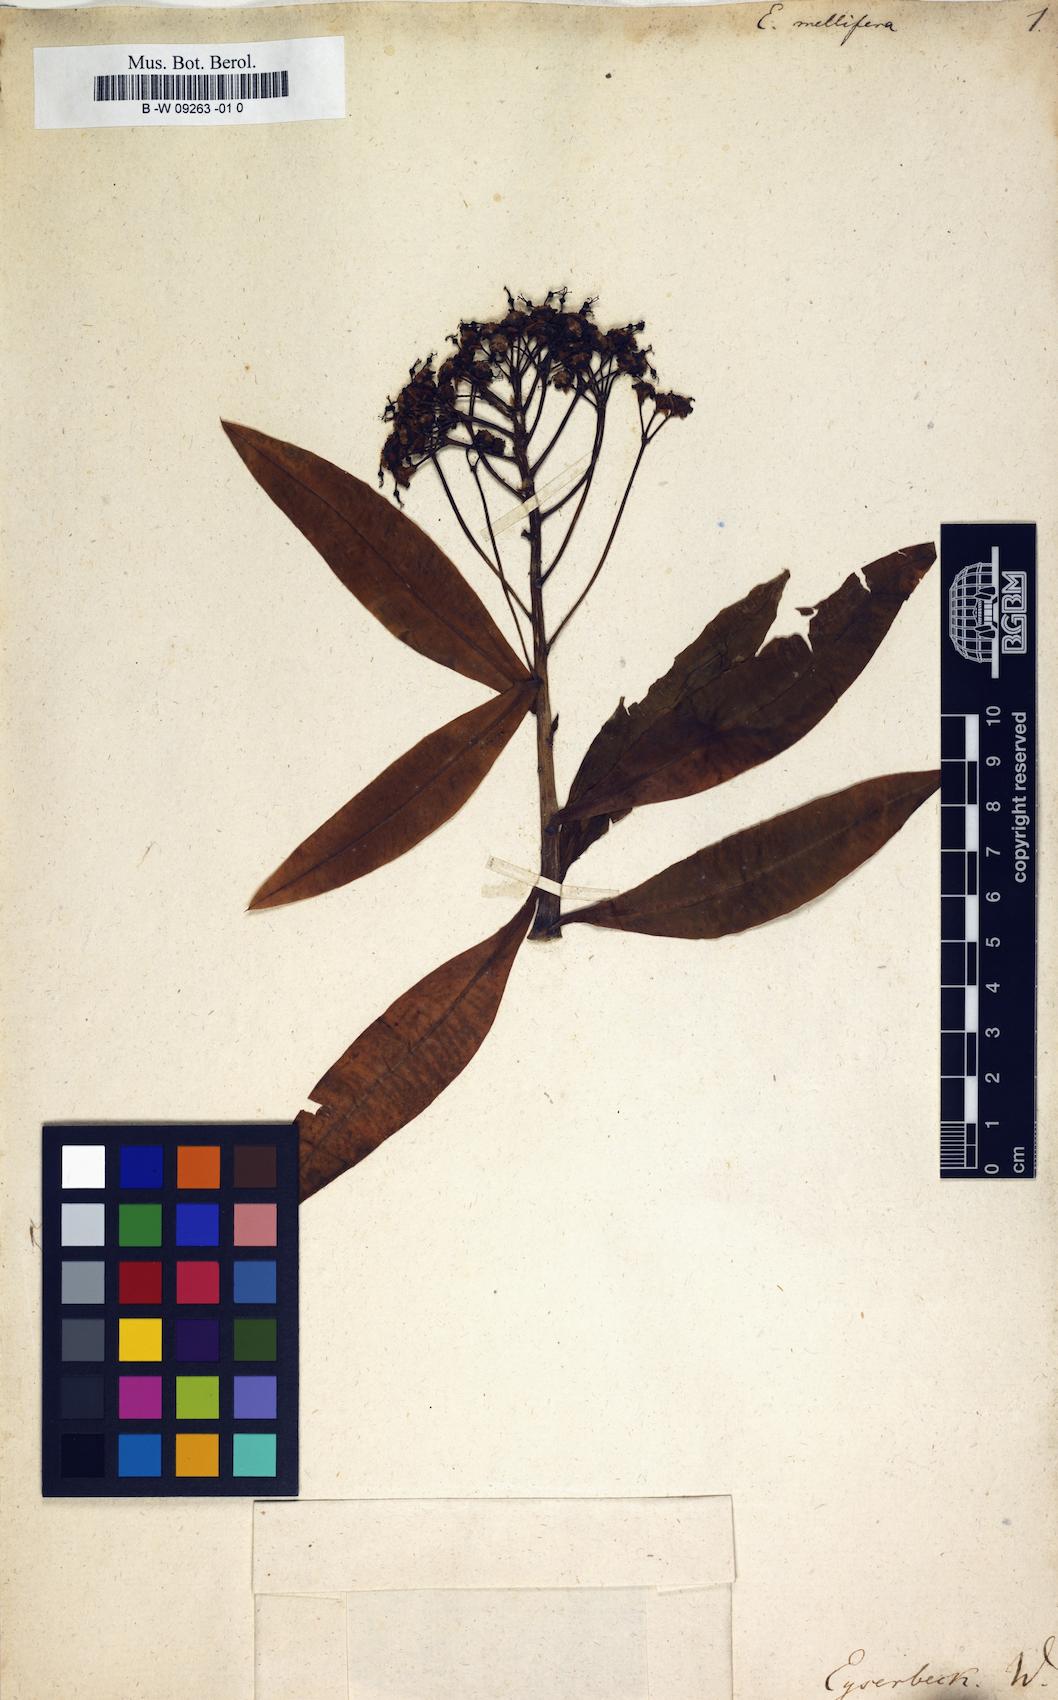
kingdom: Plantae
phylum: Tracheophyta
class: Magnoliopsida
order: Malpighiales
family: Euphorbiaceae
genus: Euphorbia
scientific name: Euphorbia mellifera
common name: Canary spurge
